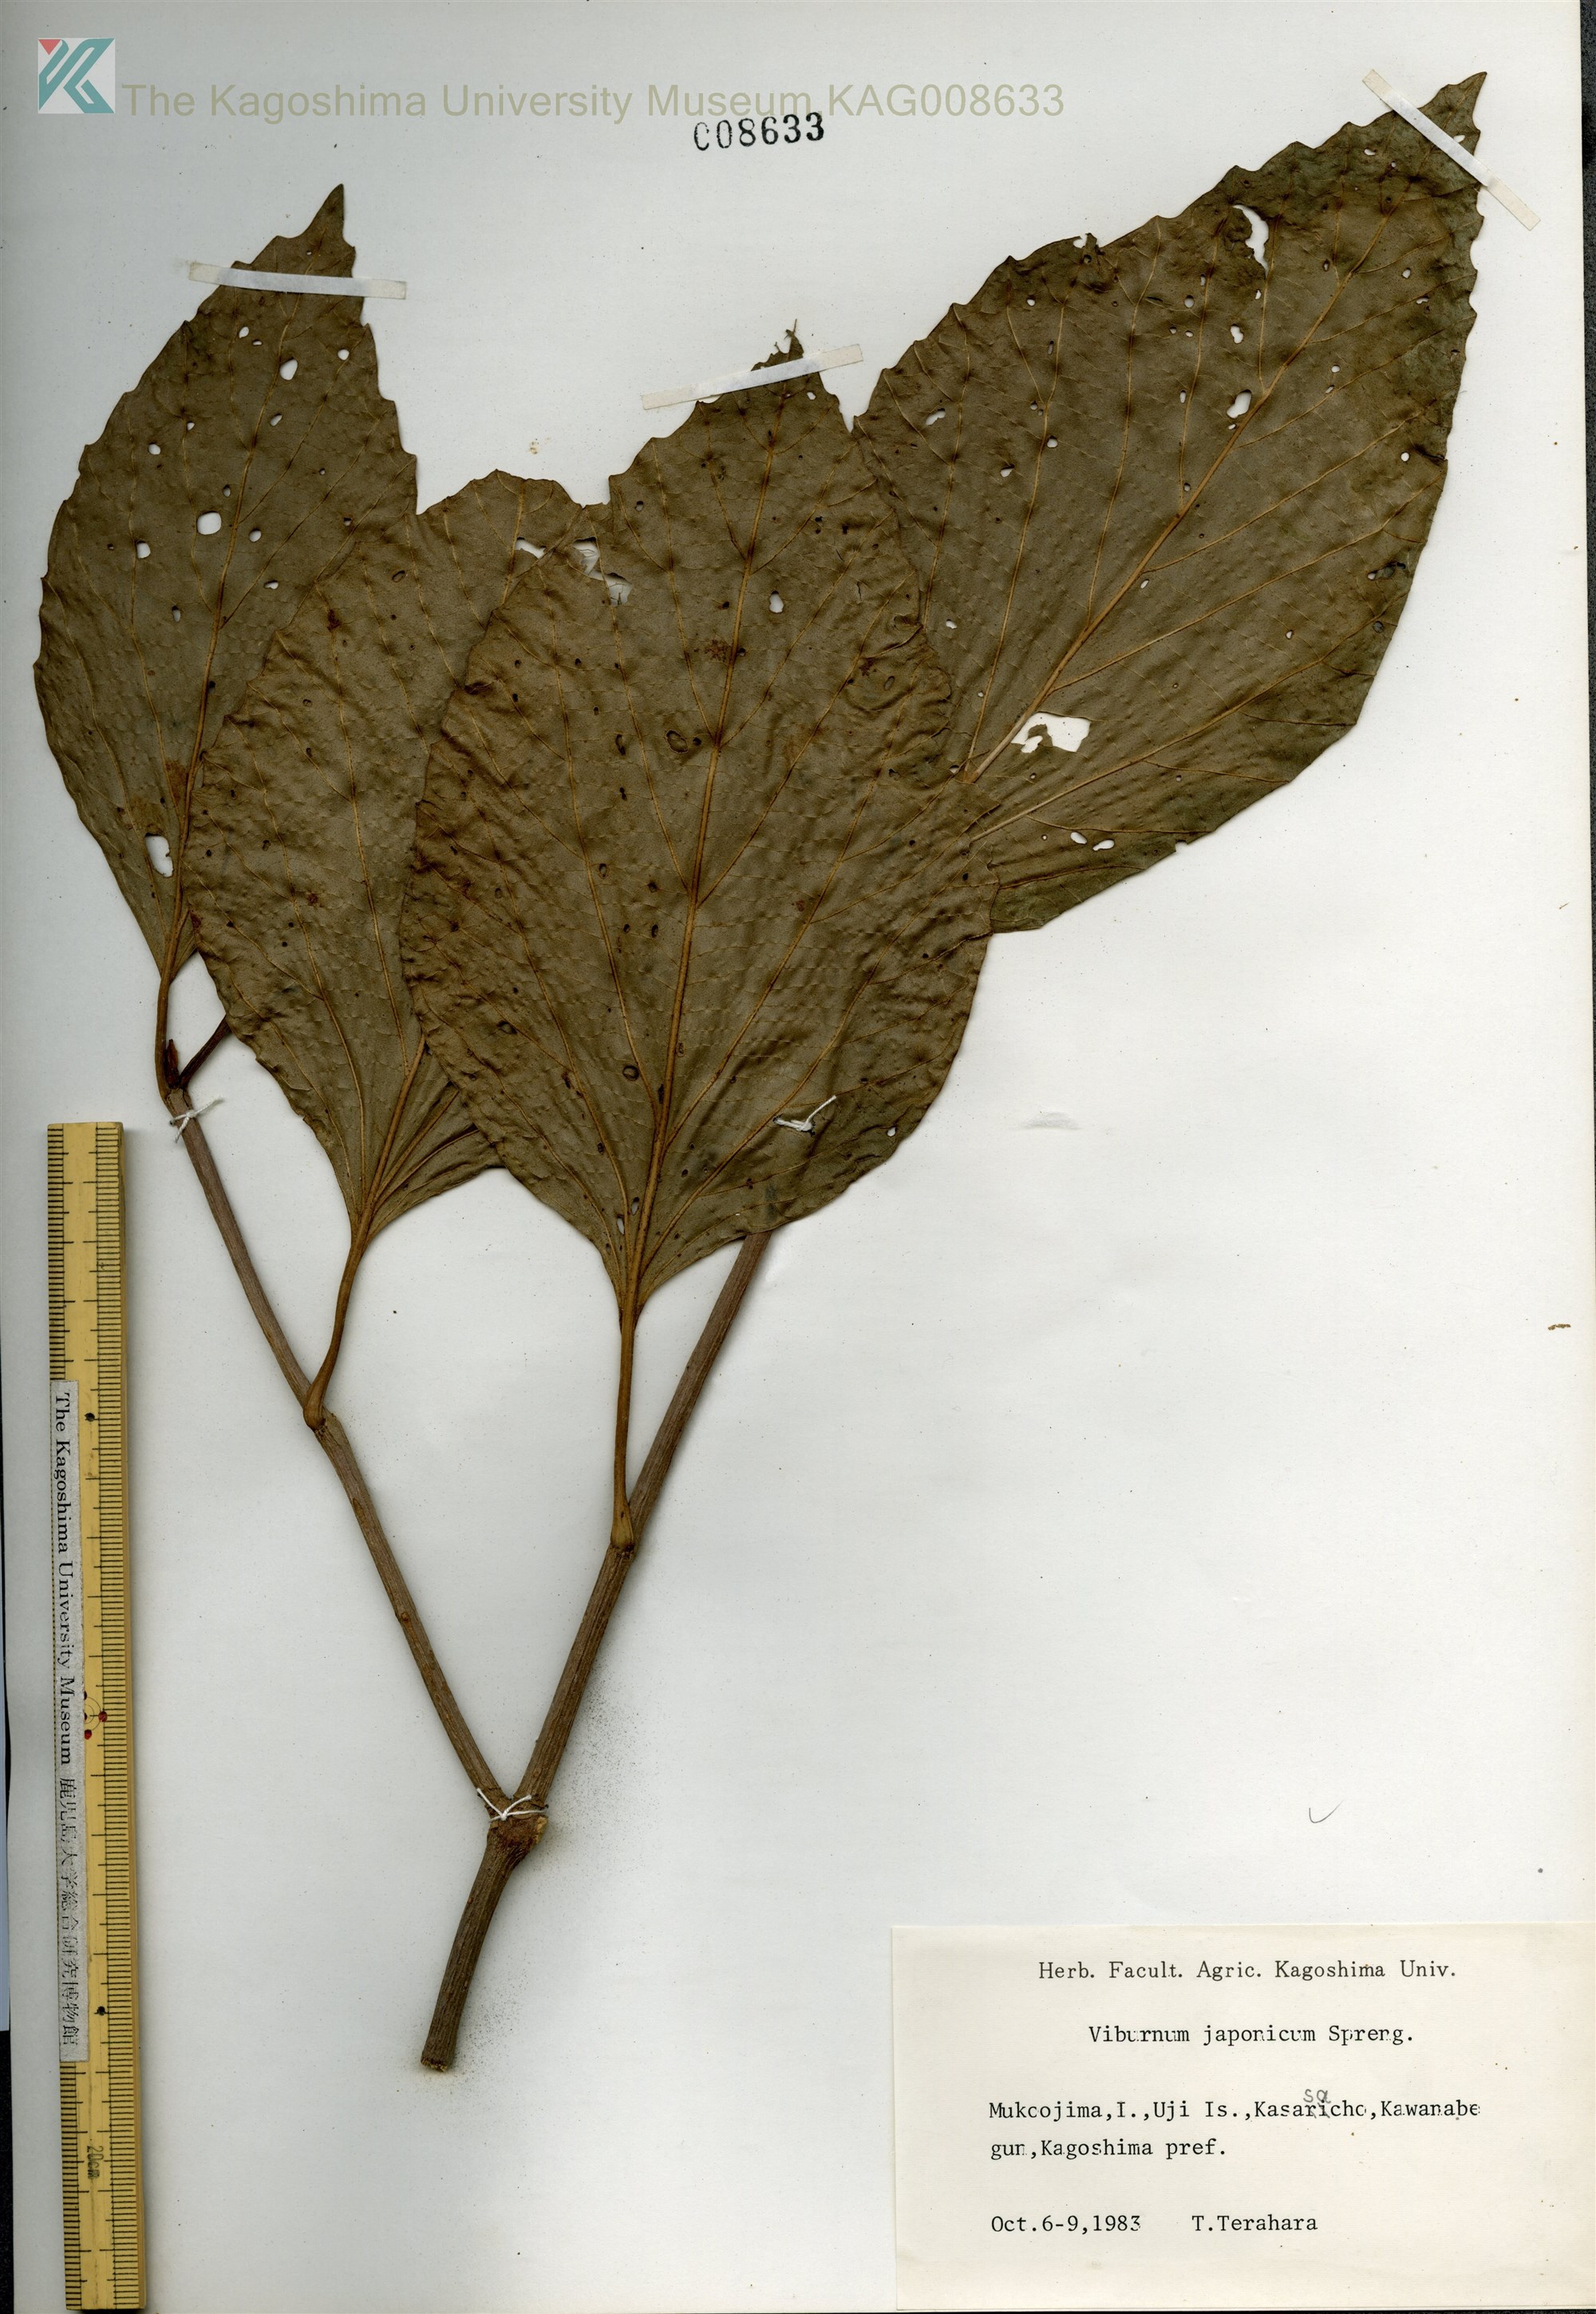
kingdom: Plantae
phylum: Tracheophyta
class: Magnoliopsida
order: Dipsacales
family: Viburnaceae
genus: Viburnum
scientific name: Viburnum japonicum
